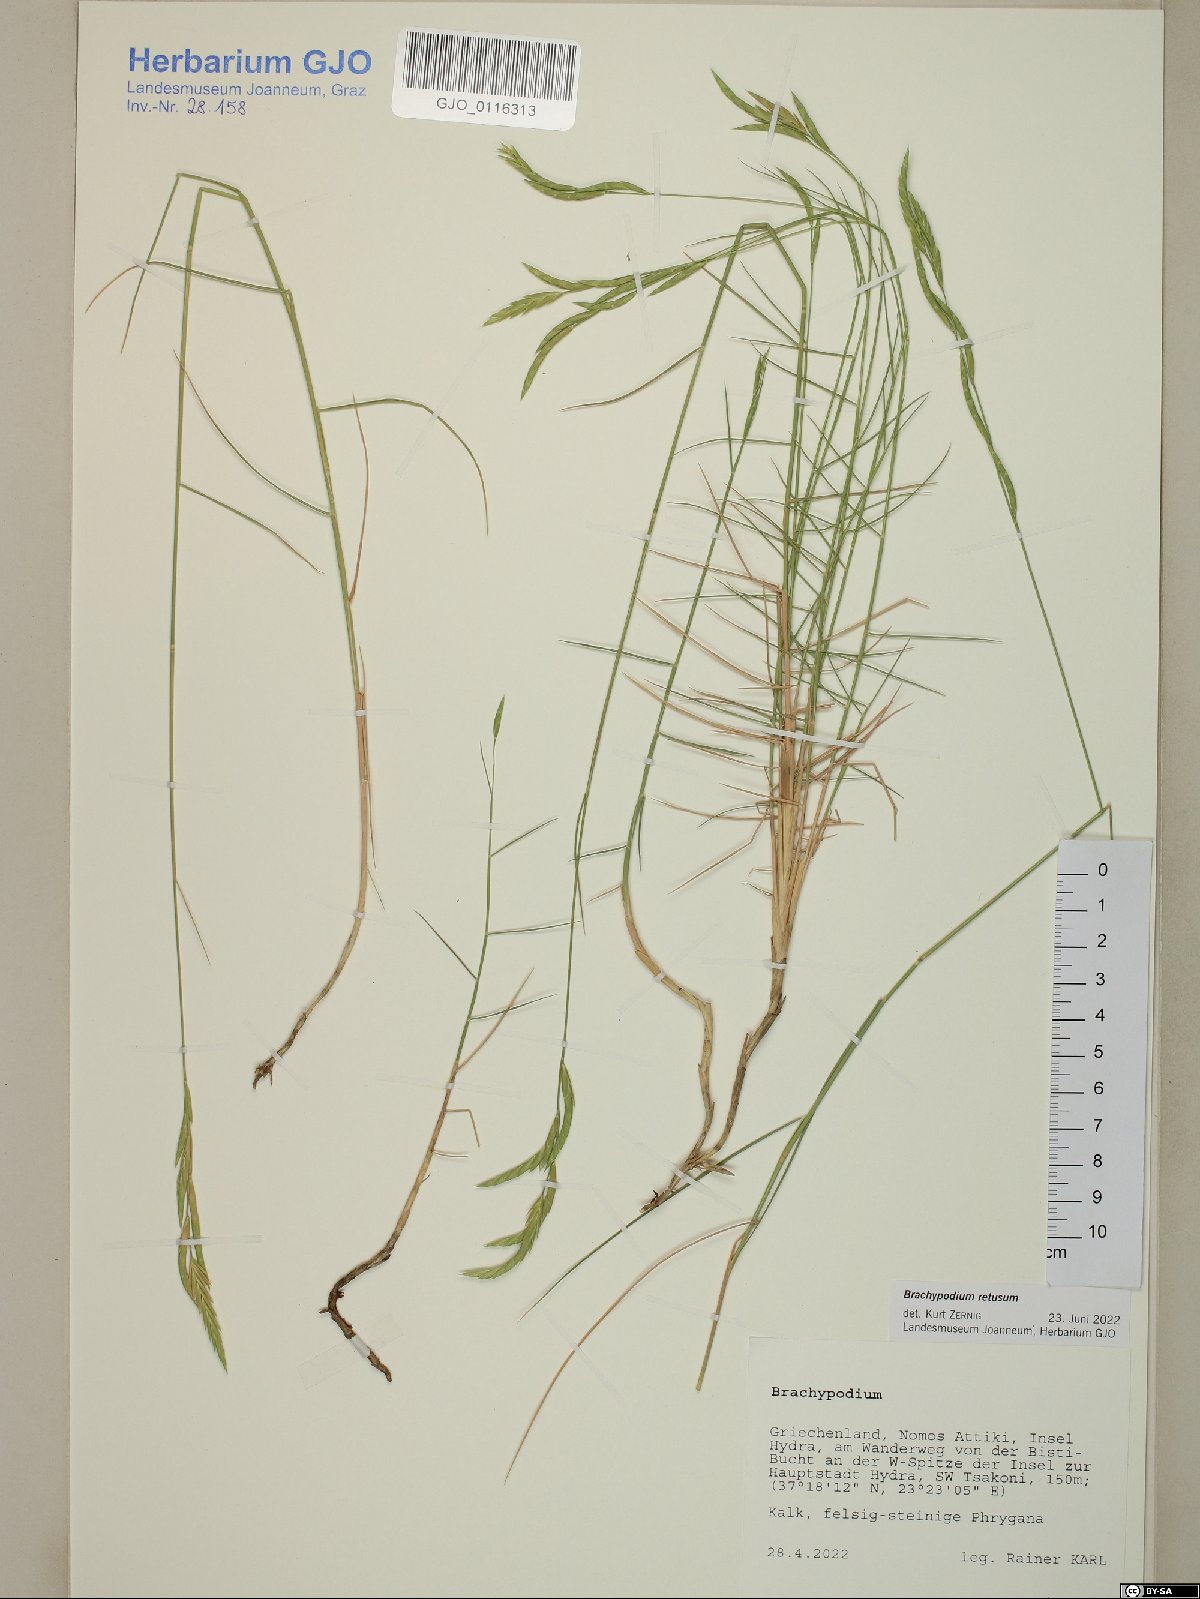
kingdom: Plantae
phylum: Tracheophyta
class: Liliopsida
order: Poales
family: Poaceae
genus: Brachypodium
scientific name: Brachypodium retusum
